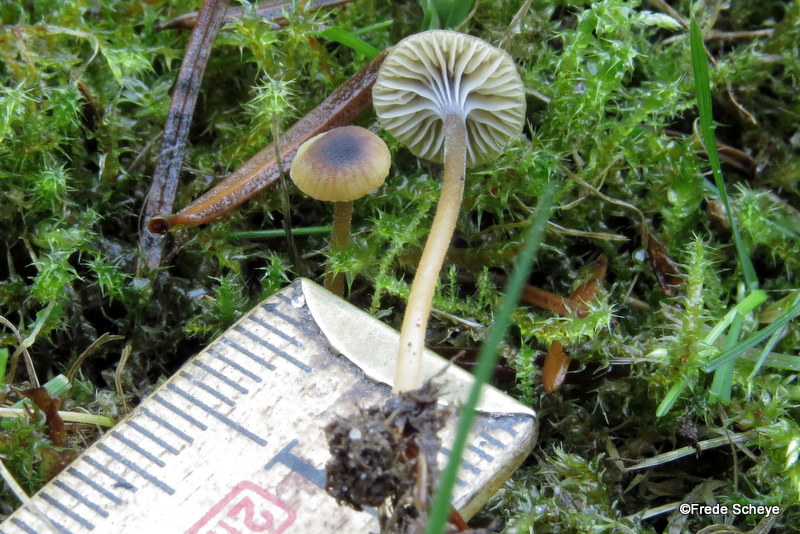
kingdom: Fungi
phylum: Basidiomycota
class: Agaricomycetes
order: Hymenochaetales
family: Rickenellaceae
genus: Rickenella
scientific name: Rickenella swartzii
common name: finstokket mosnavlehat
